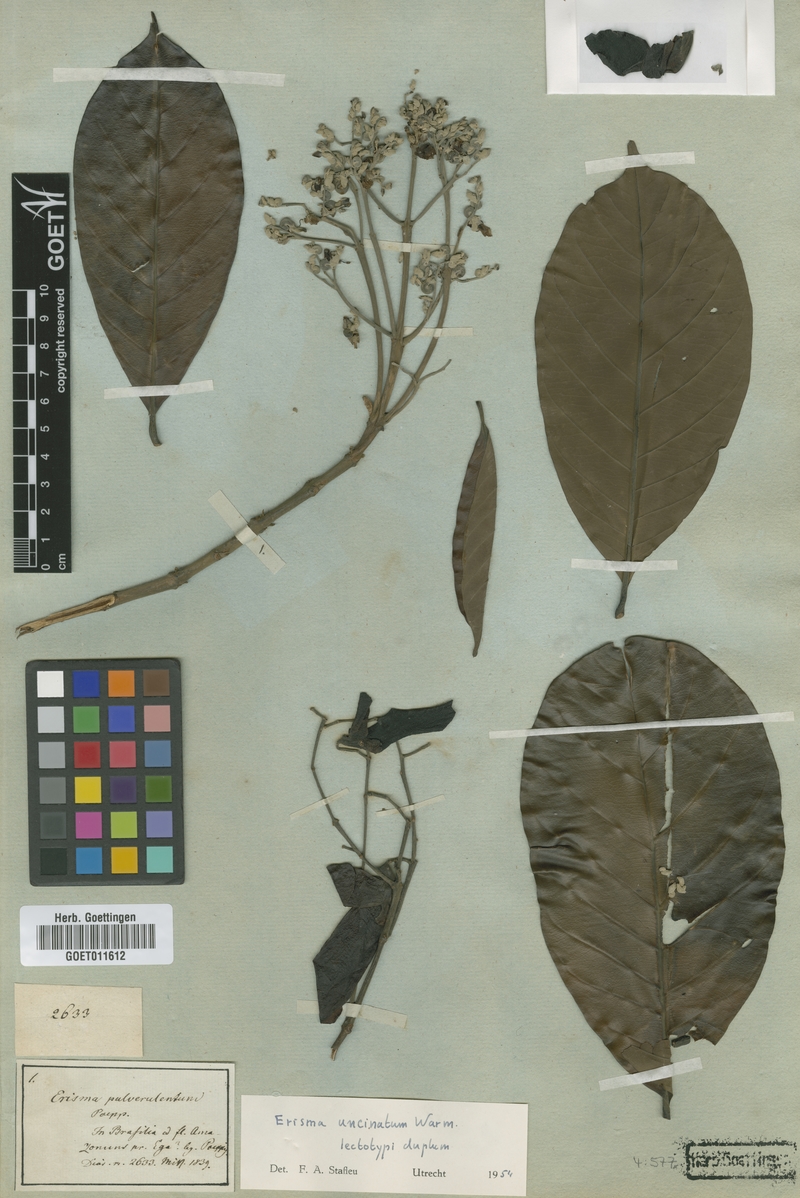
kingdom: Plantae
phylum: Tracheophyta
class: Magnoliopsida
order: Myrtales
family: Vochysiaceae
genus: Erisma
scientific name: Erisma uncinatum
